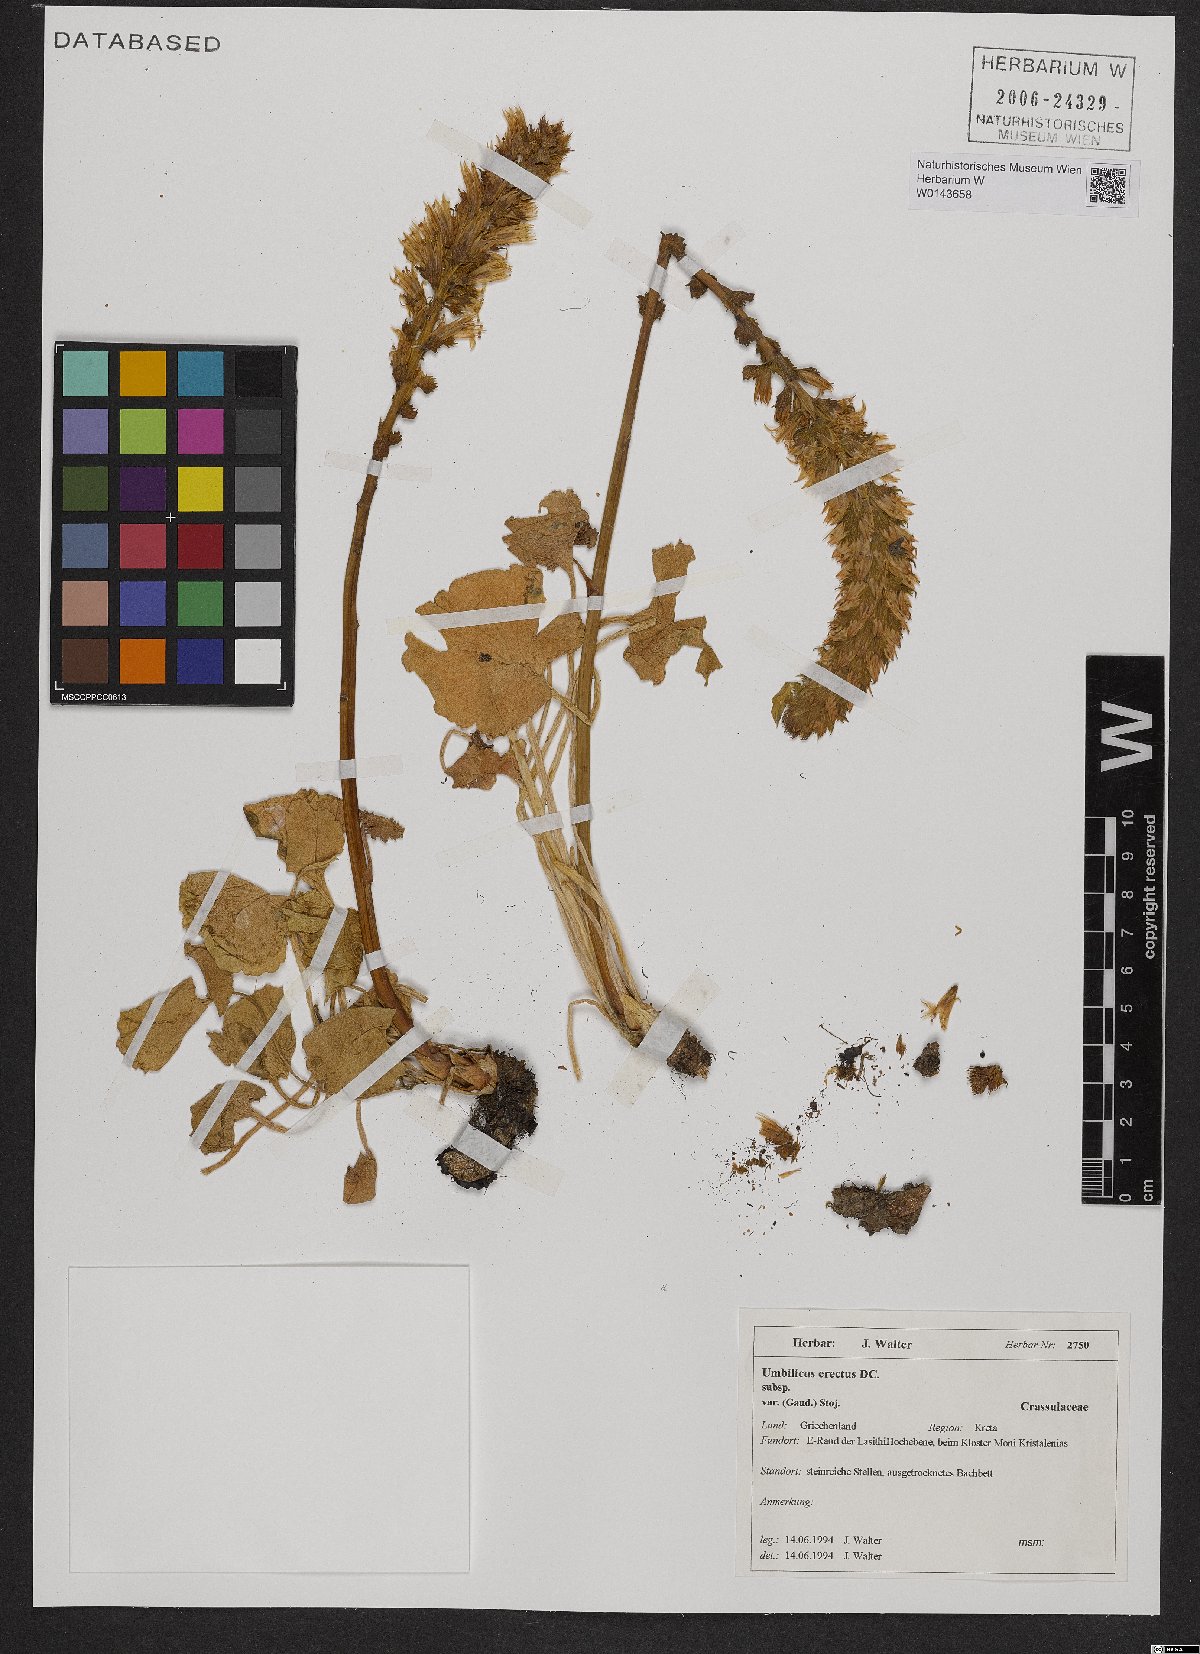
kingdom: Plantae
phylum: Tracheophyta
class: Magnoliopsida
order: Saxifragales
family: Crassulaceae
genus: Umbilicus
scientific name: Umbilicus luteus
